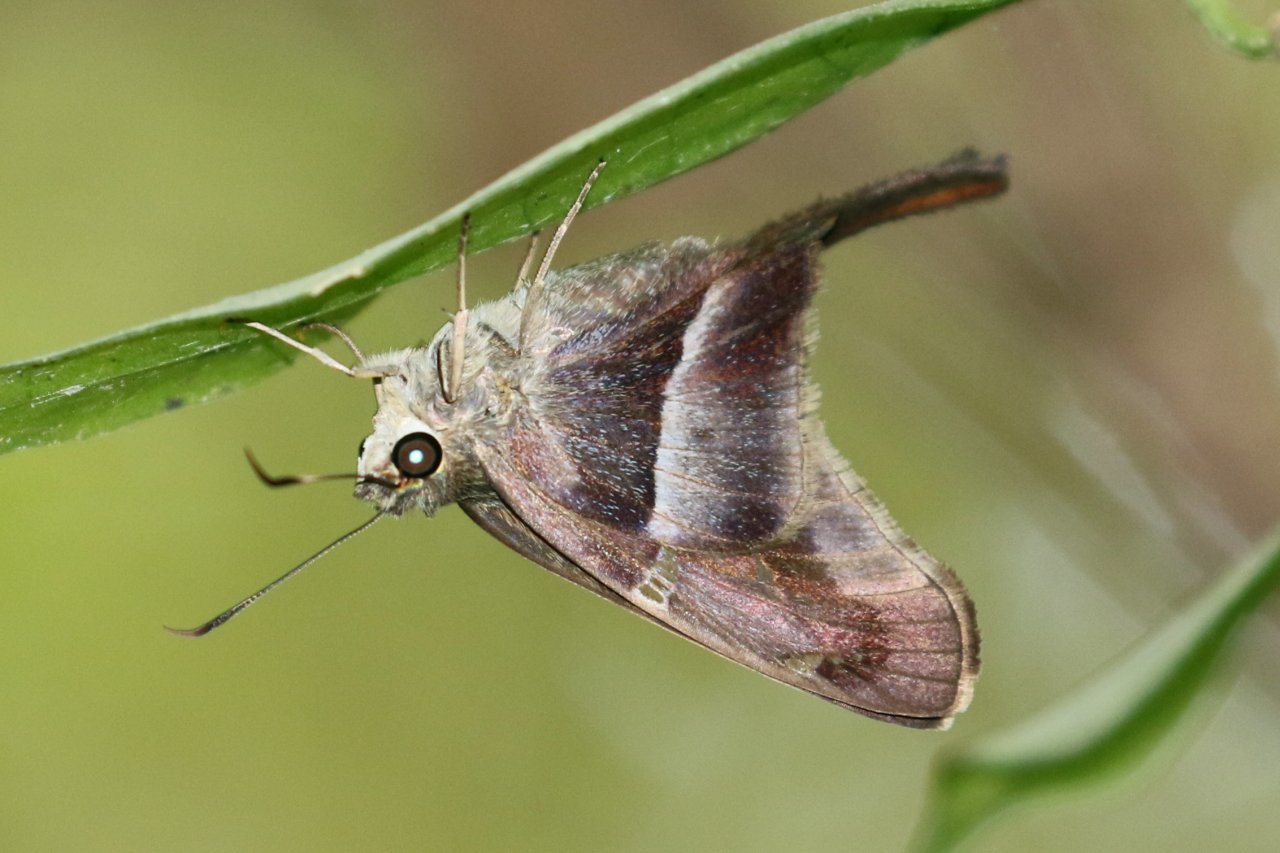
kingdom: Animalia
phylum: Arthropoda
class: Insecta
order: Lepidoptera
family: Hesperiidae
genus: Aguna
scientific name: Aguna metophis
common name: Tailed Aguna
